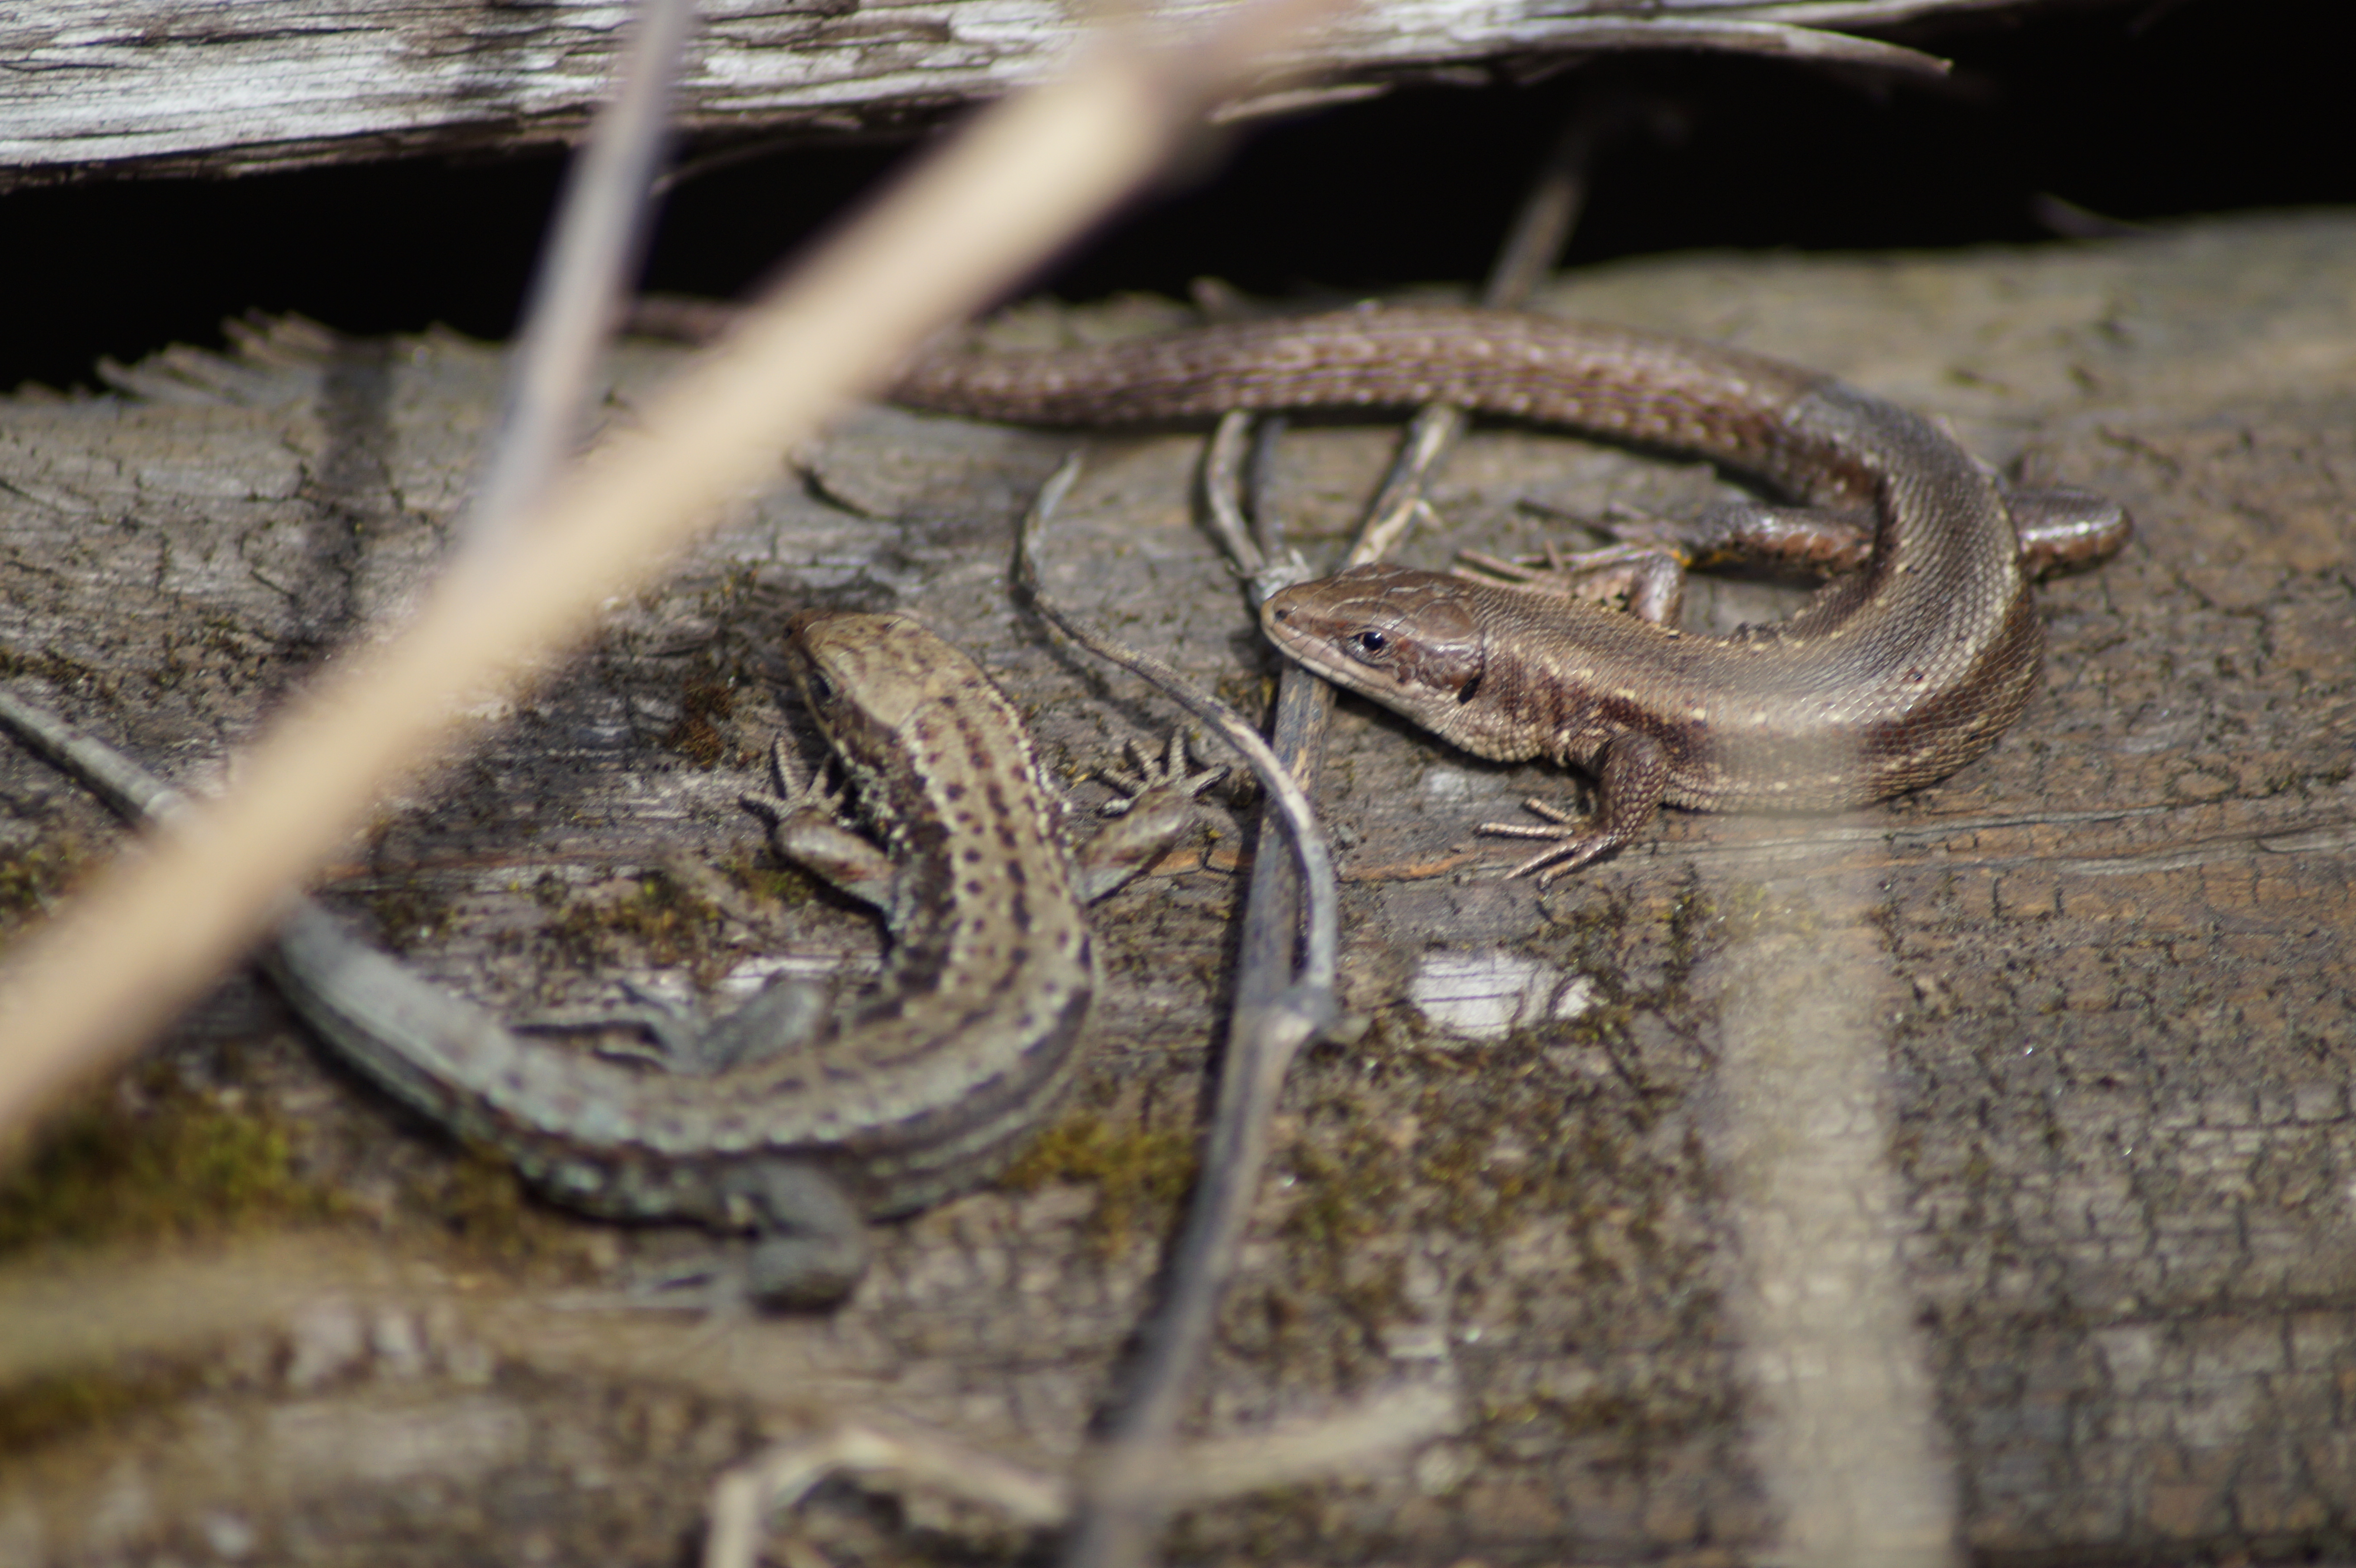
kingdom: Animalia
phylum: Chordata
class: Squamata
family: Lacertidae
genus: Zootoca
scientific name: Zootoca vivipara
